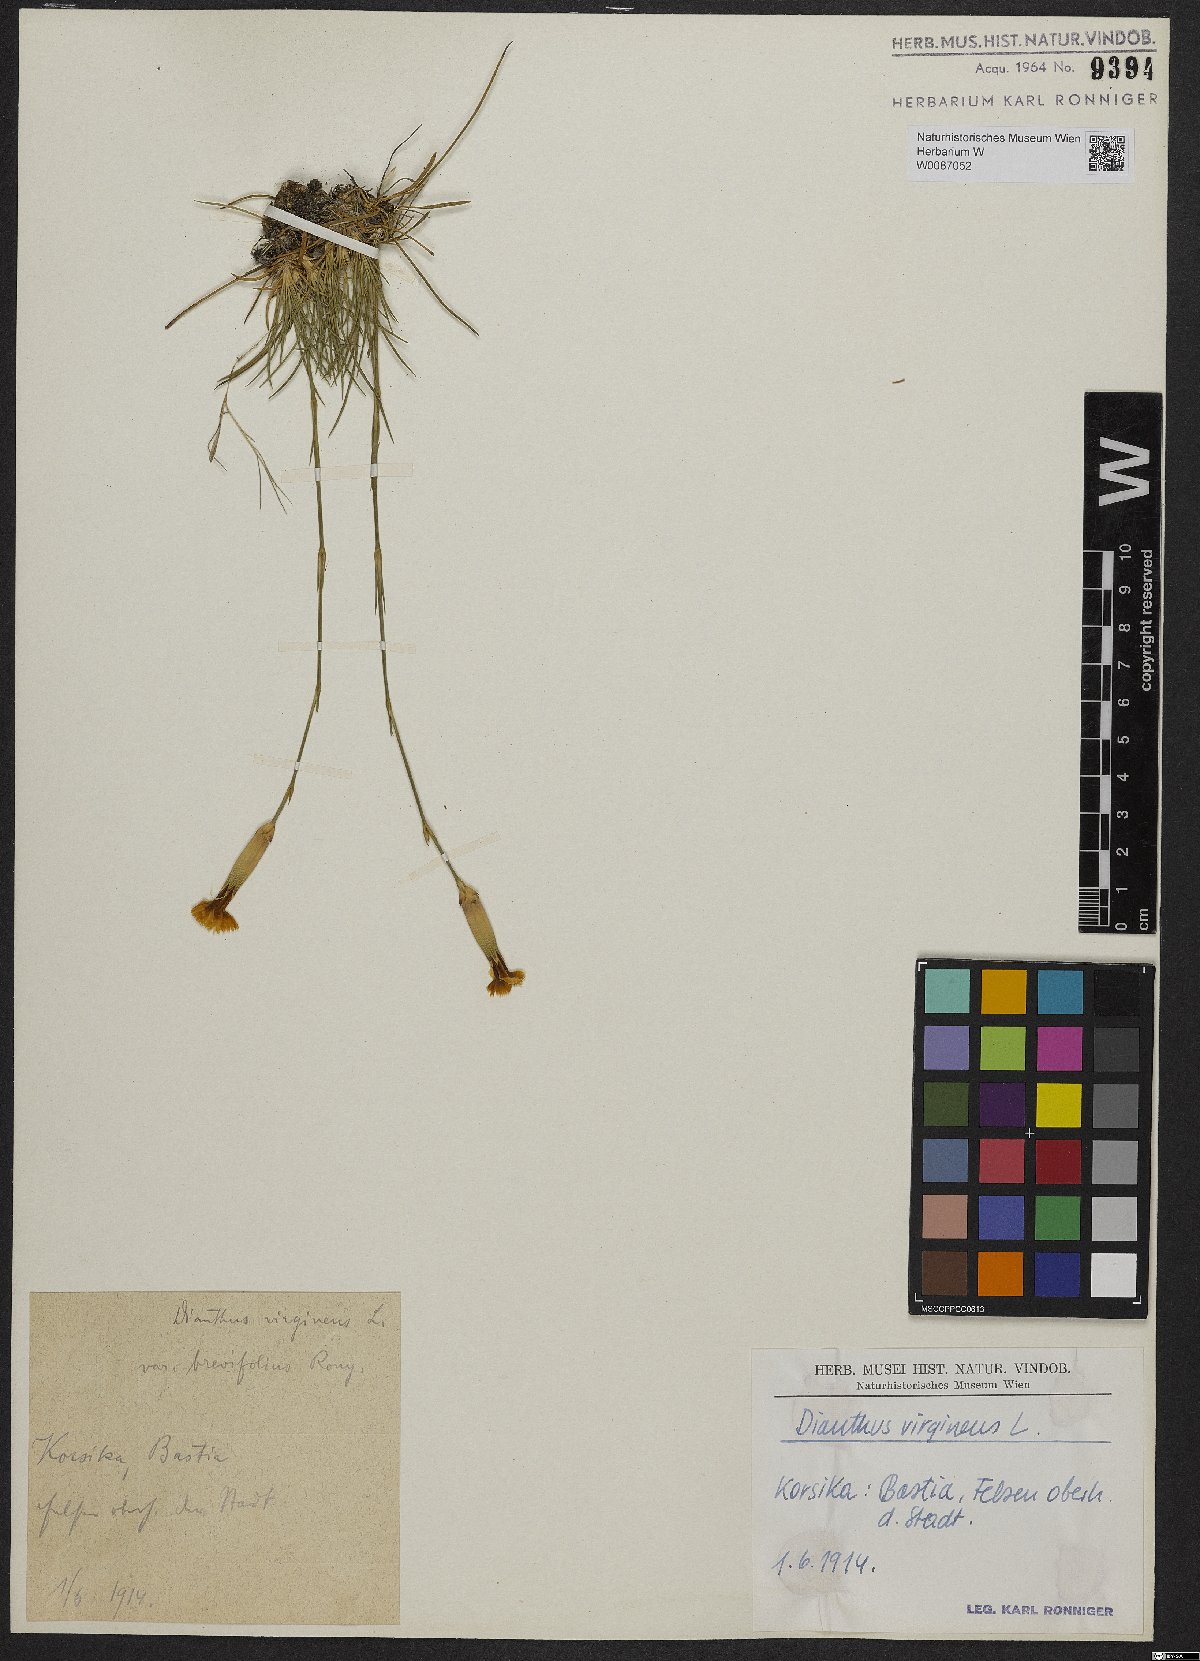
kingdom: Plantae
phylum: Tracheophyta
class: Magnoliopsida
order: Caryophyllales
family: Caryophyllaceae
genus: Dianthus
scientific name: Dianthus virgineus
